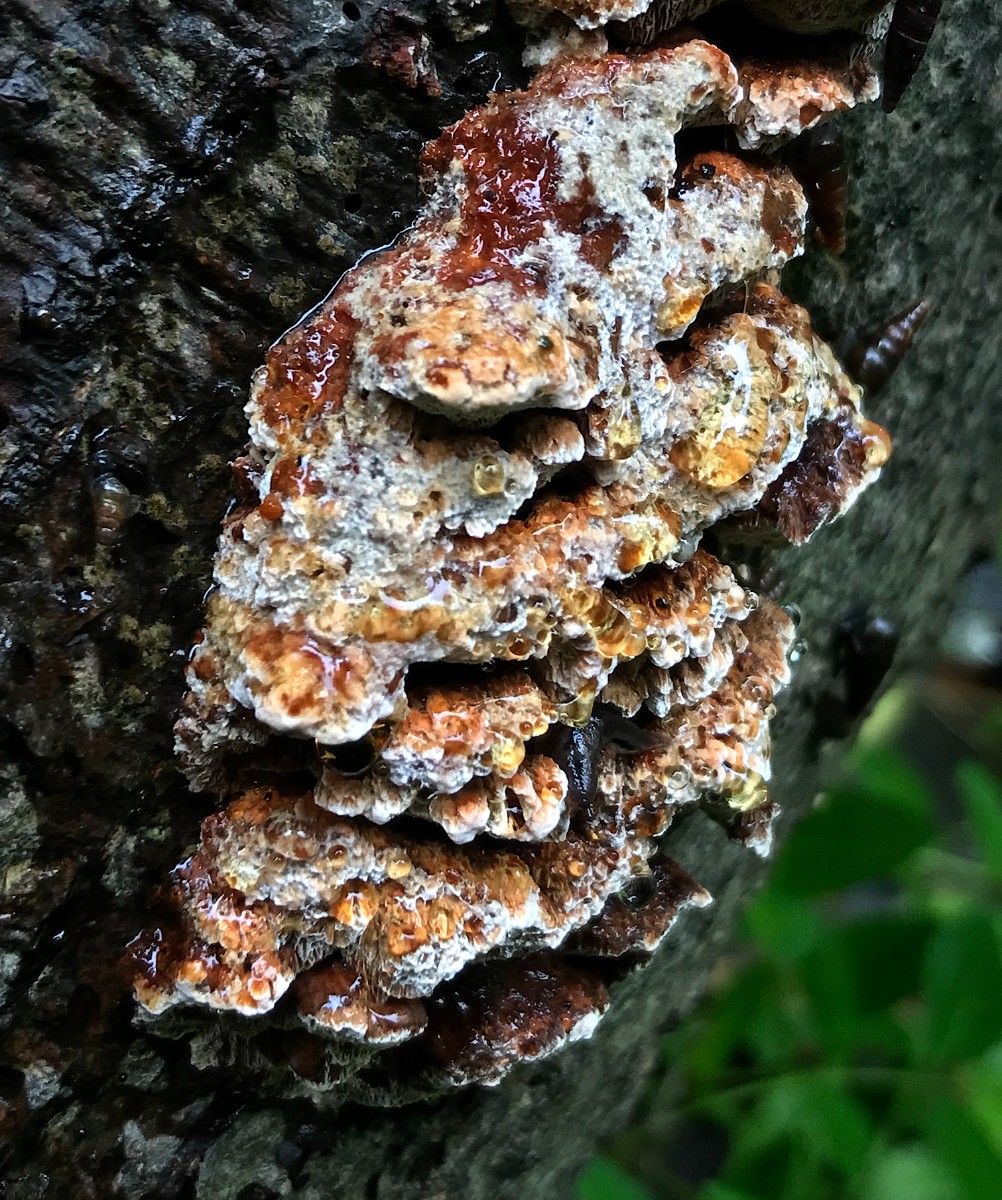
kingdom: Fungi
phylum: Basidiomycota
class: Agaricomycetes
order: Hymenochaetales
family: Hymenochaetaceae
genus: Mensularia
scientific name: Mensularia nodulosa
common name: bøge-spejlporesvamp
